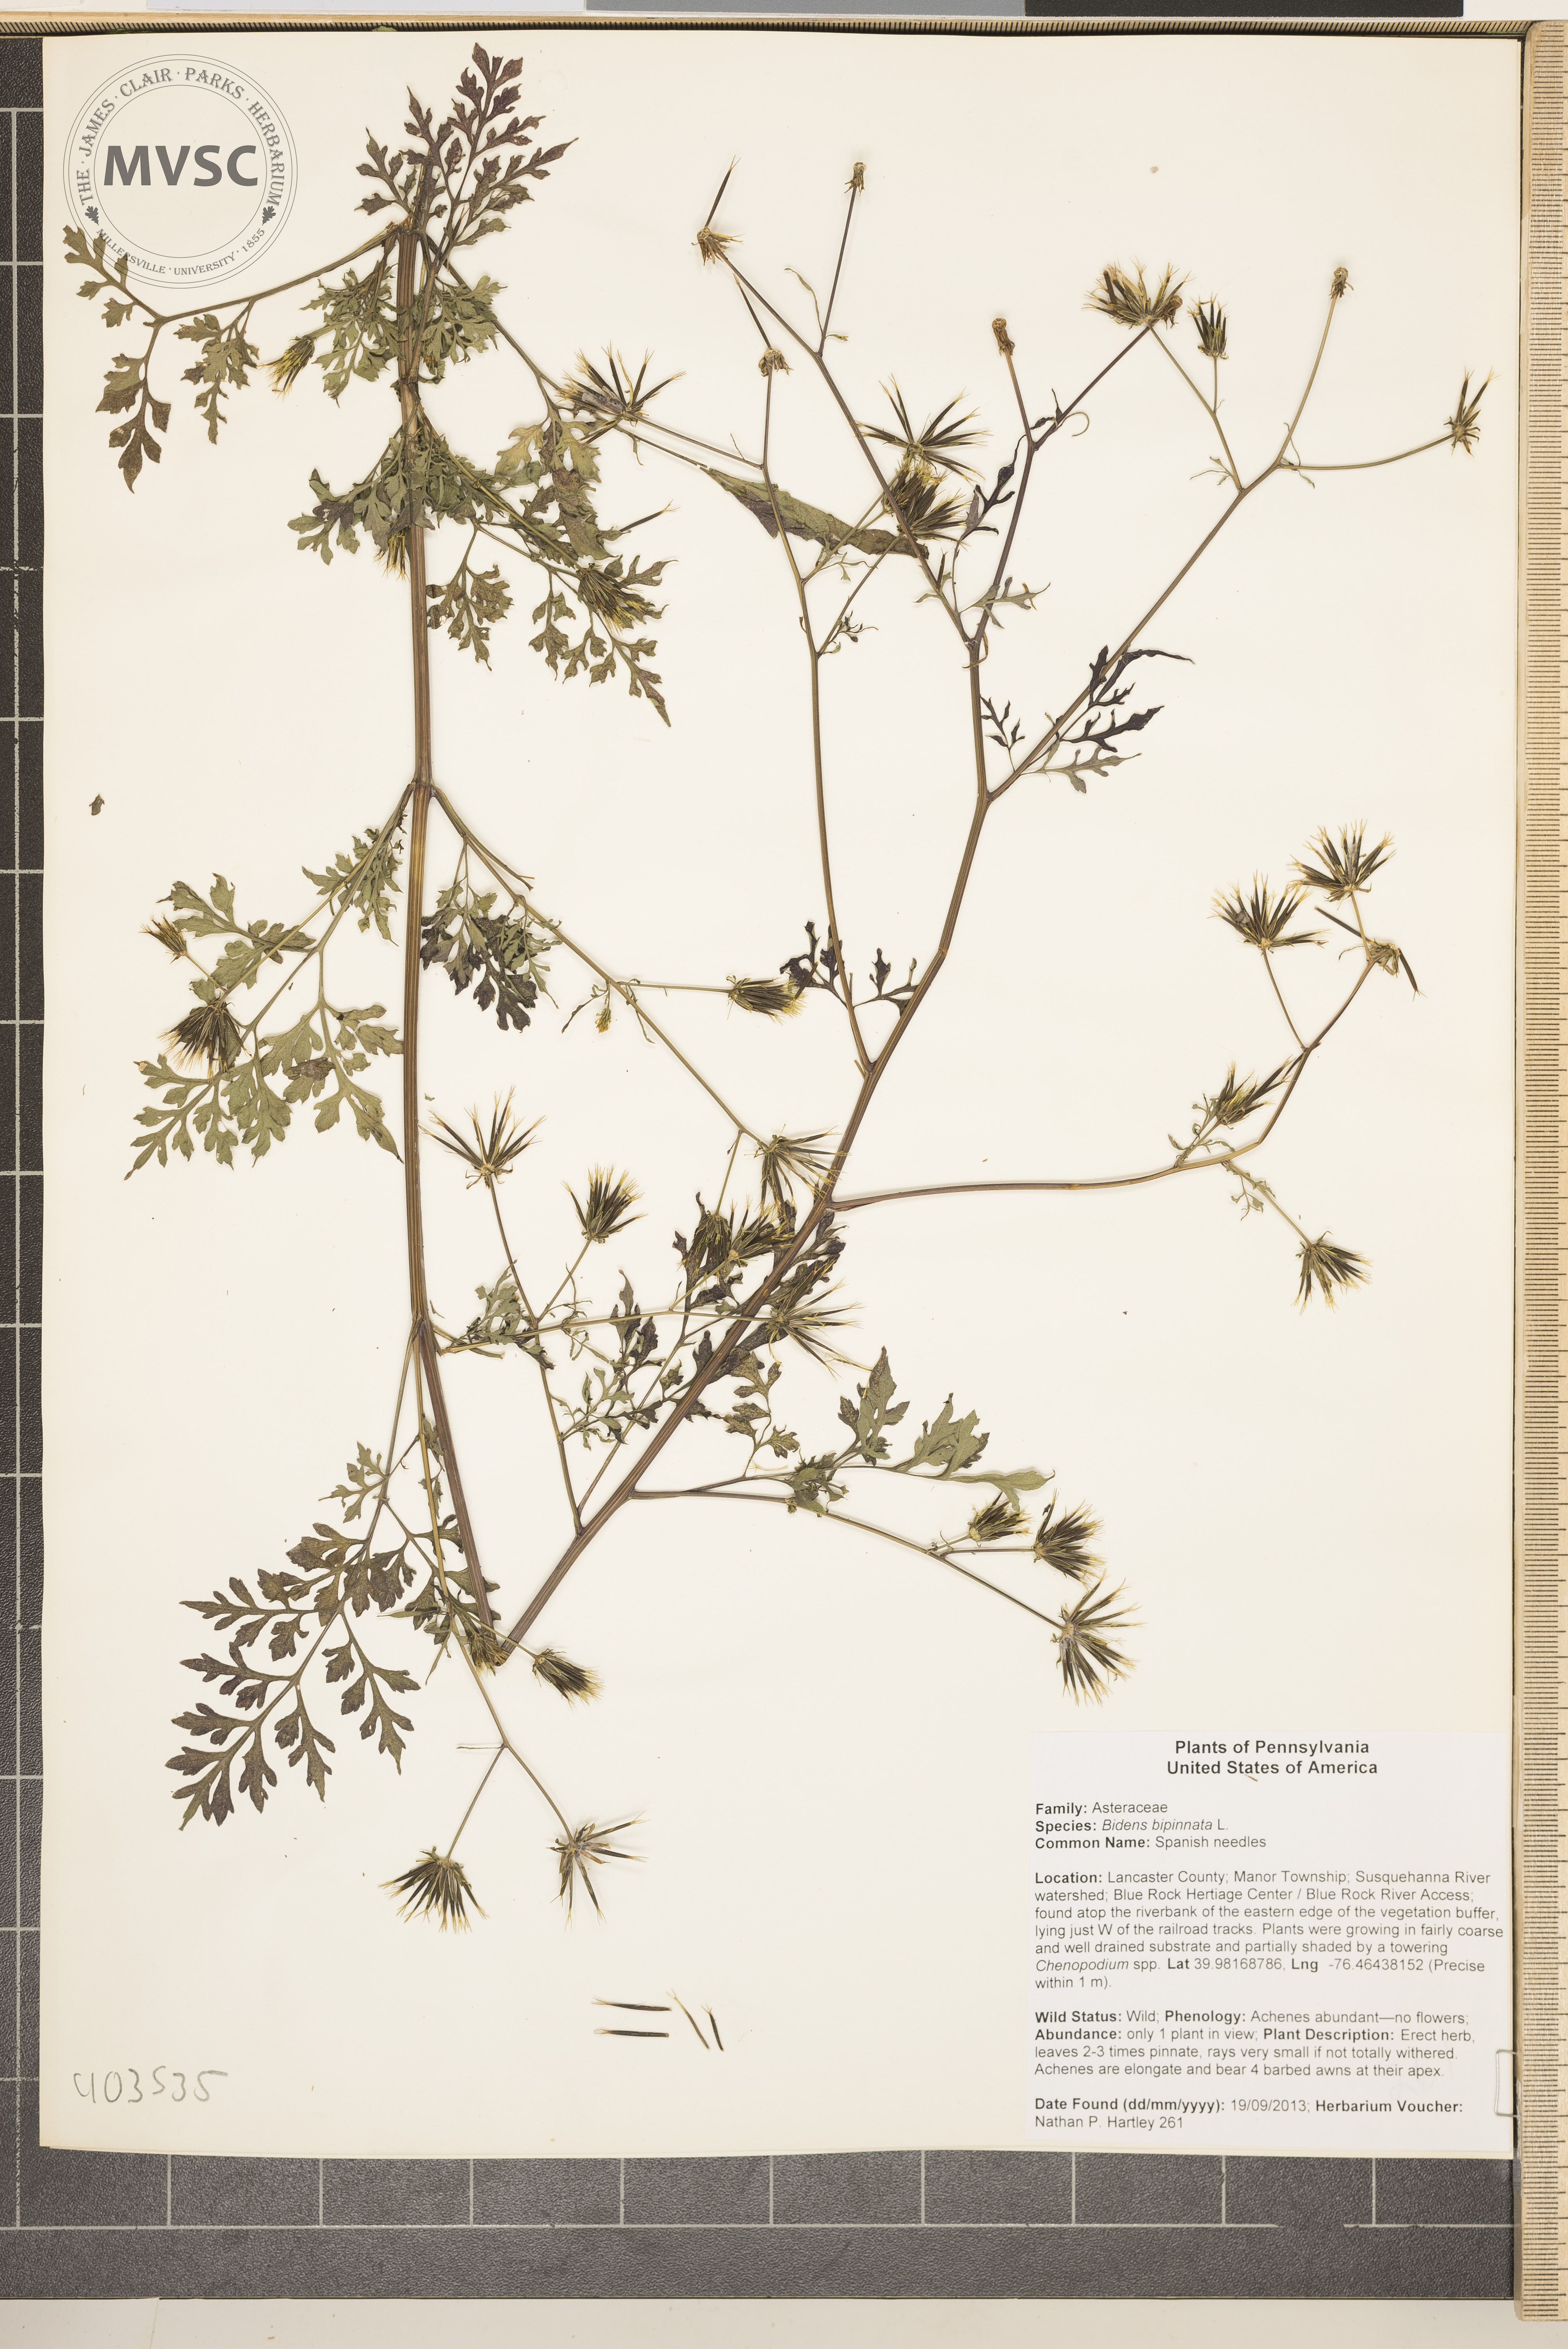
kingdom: Plantae
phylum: Tracheophyta
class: Magnoliopsida
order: Asterales
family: Asteraceae
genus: Bidens
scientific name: Bidens bipinnata
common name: Spanish needles
